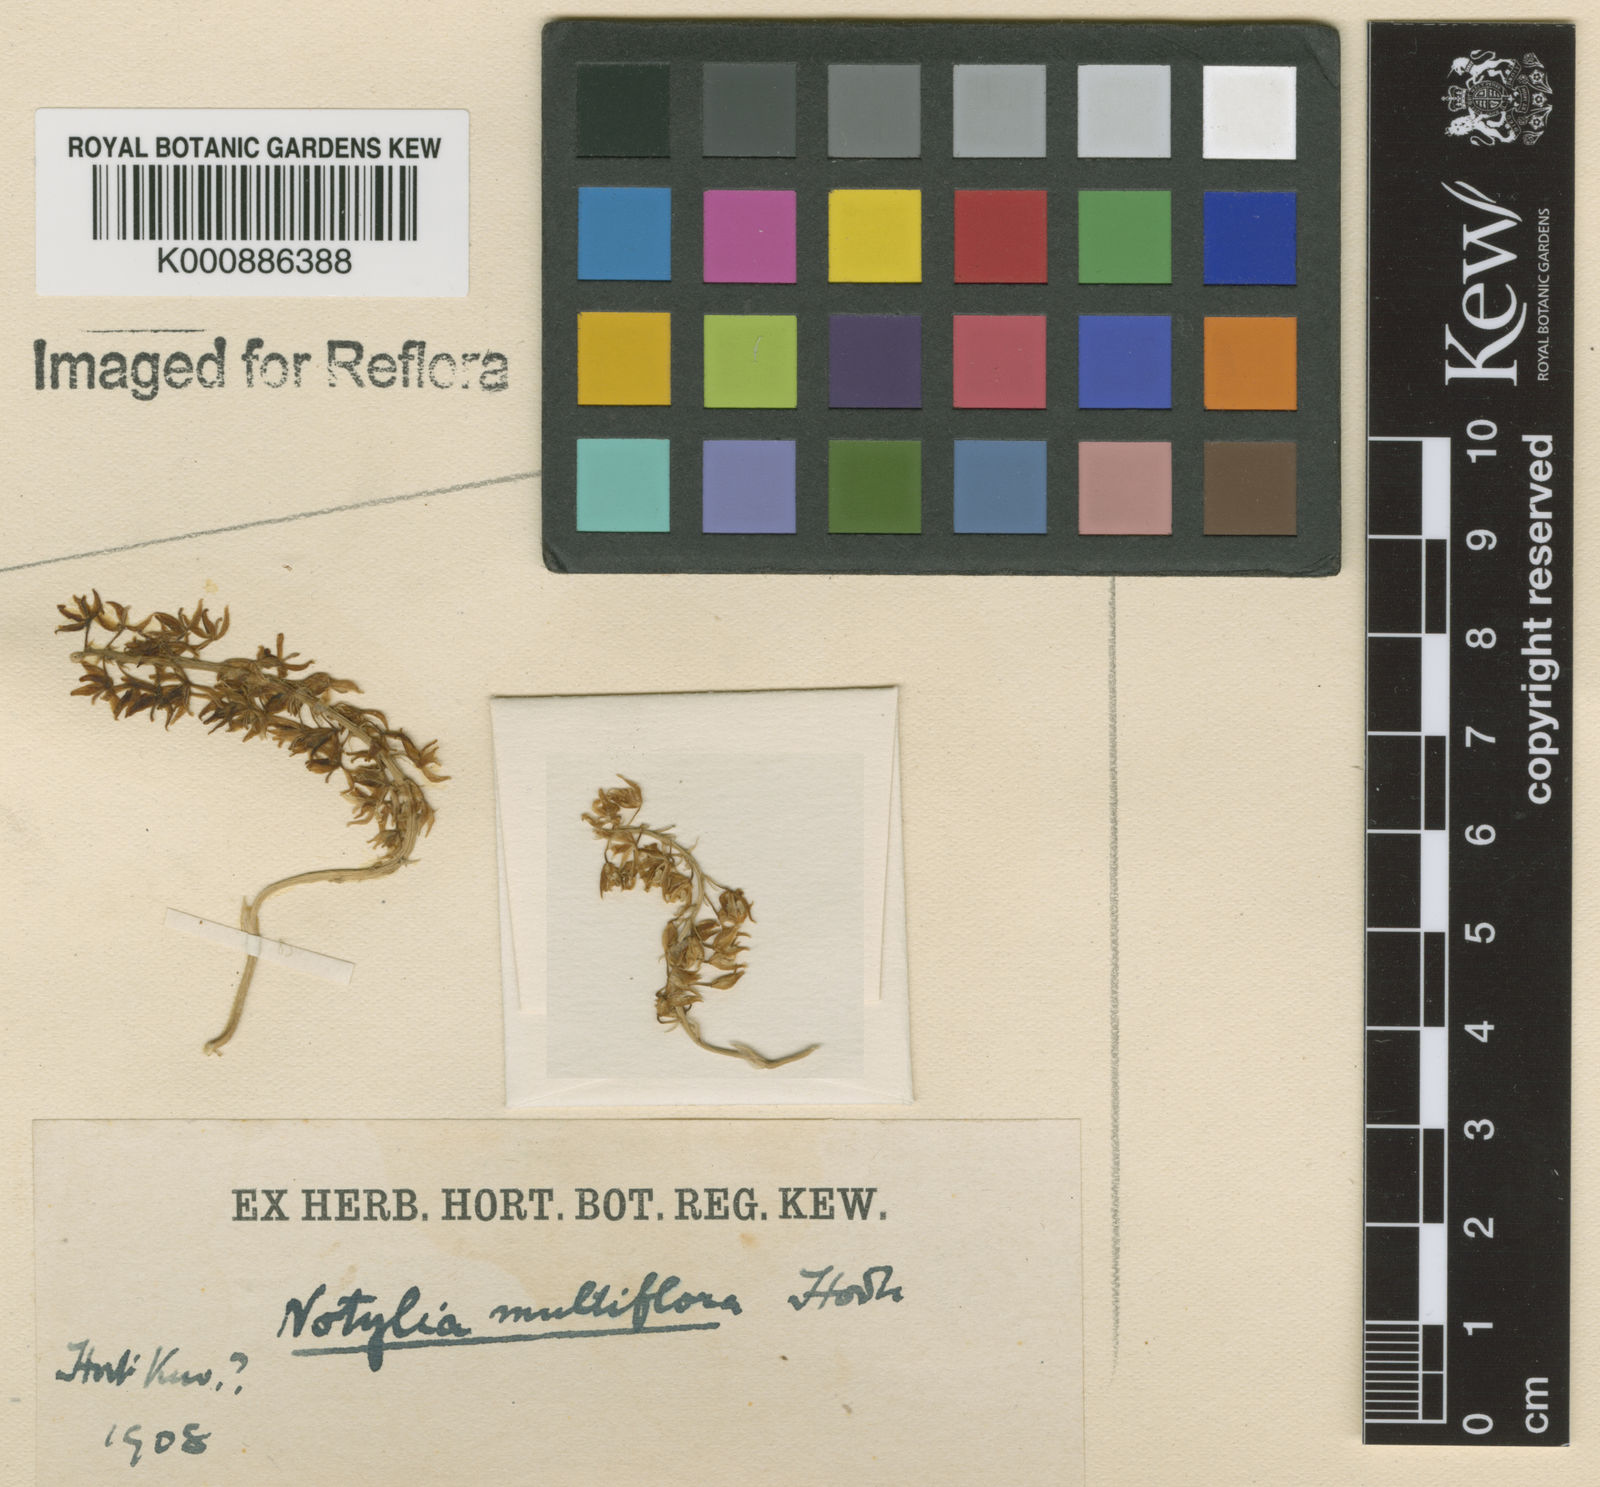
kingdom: Plantae
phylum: Tracheophyta
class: Liliopsida
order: Asparagales
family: Orchidaceae
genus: Notylia
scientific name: Notylia sagittifera
